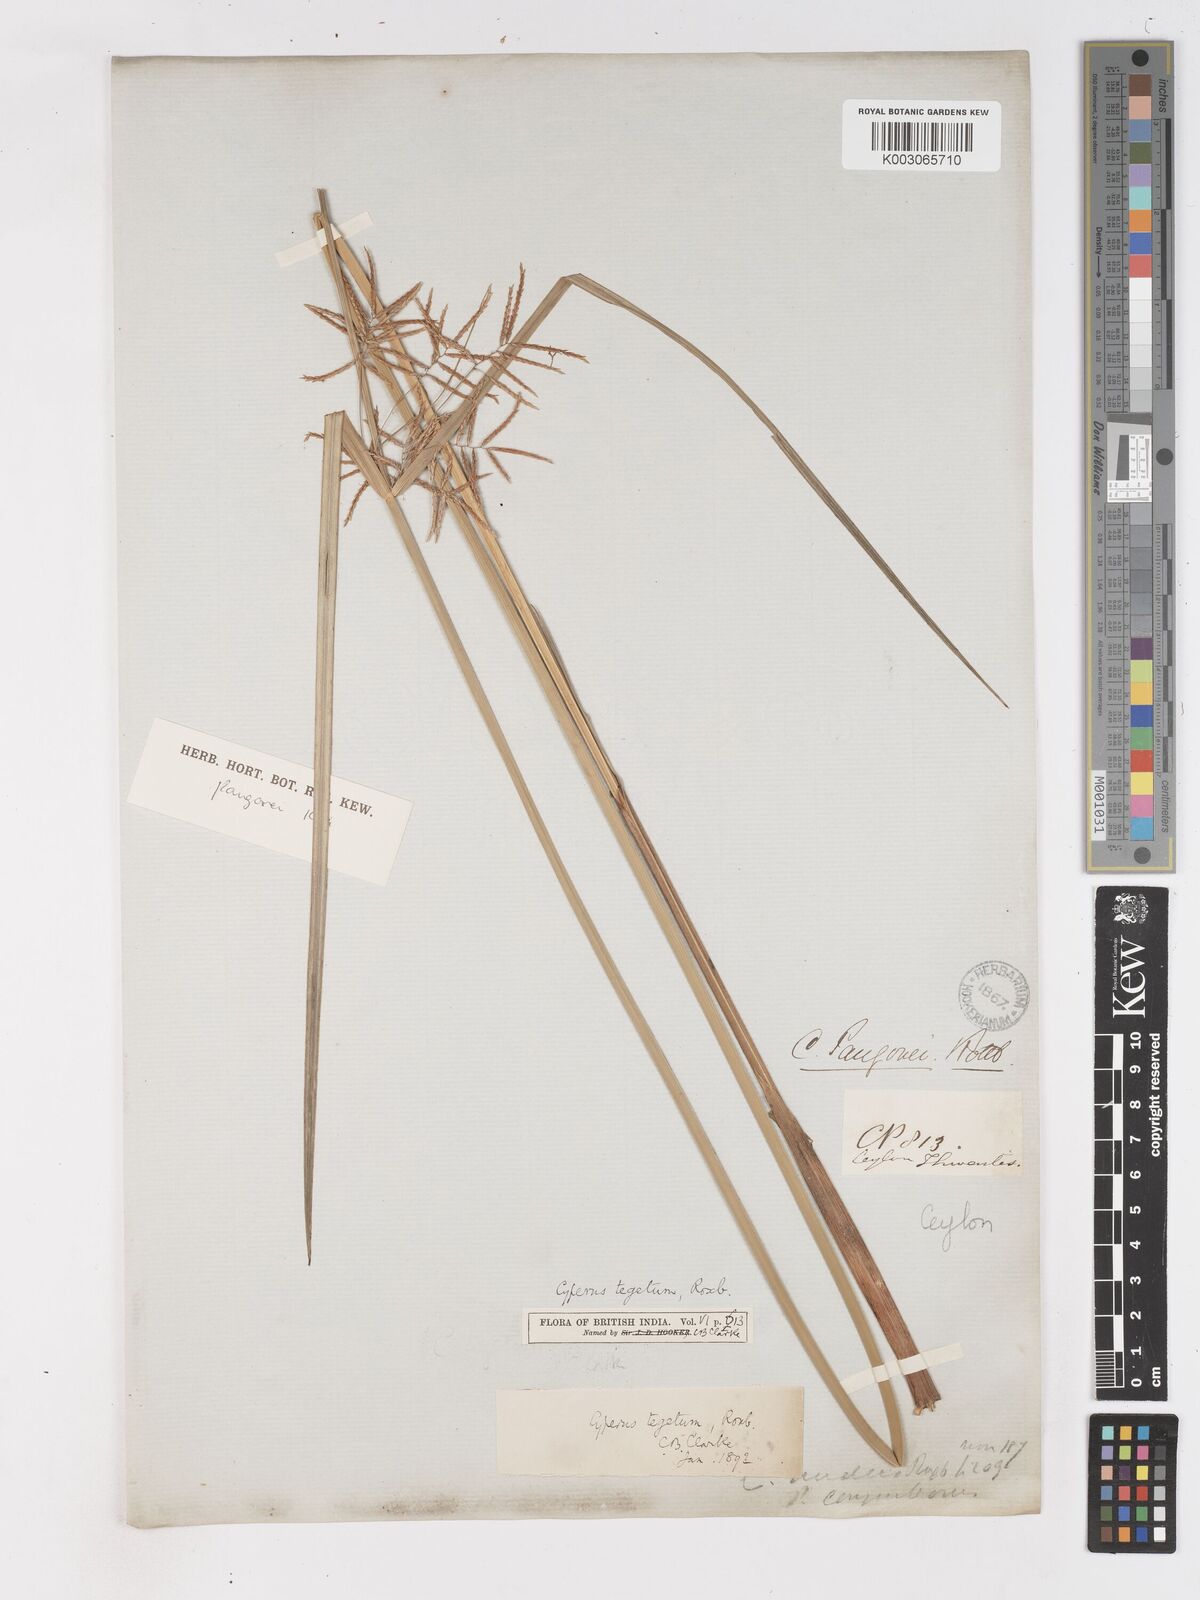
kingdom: Plantae
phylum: Tracheophyta
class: Liliopsida
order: Poales
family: Cyperaceae
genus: Cyperus
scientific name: Cyperus pangorei
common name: Mat sedge
